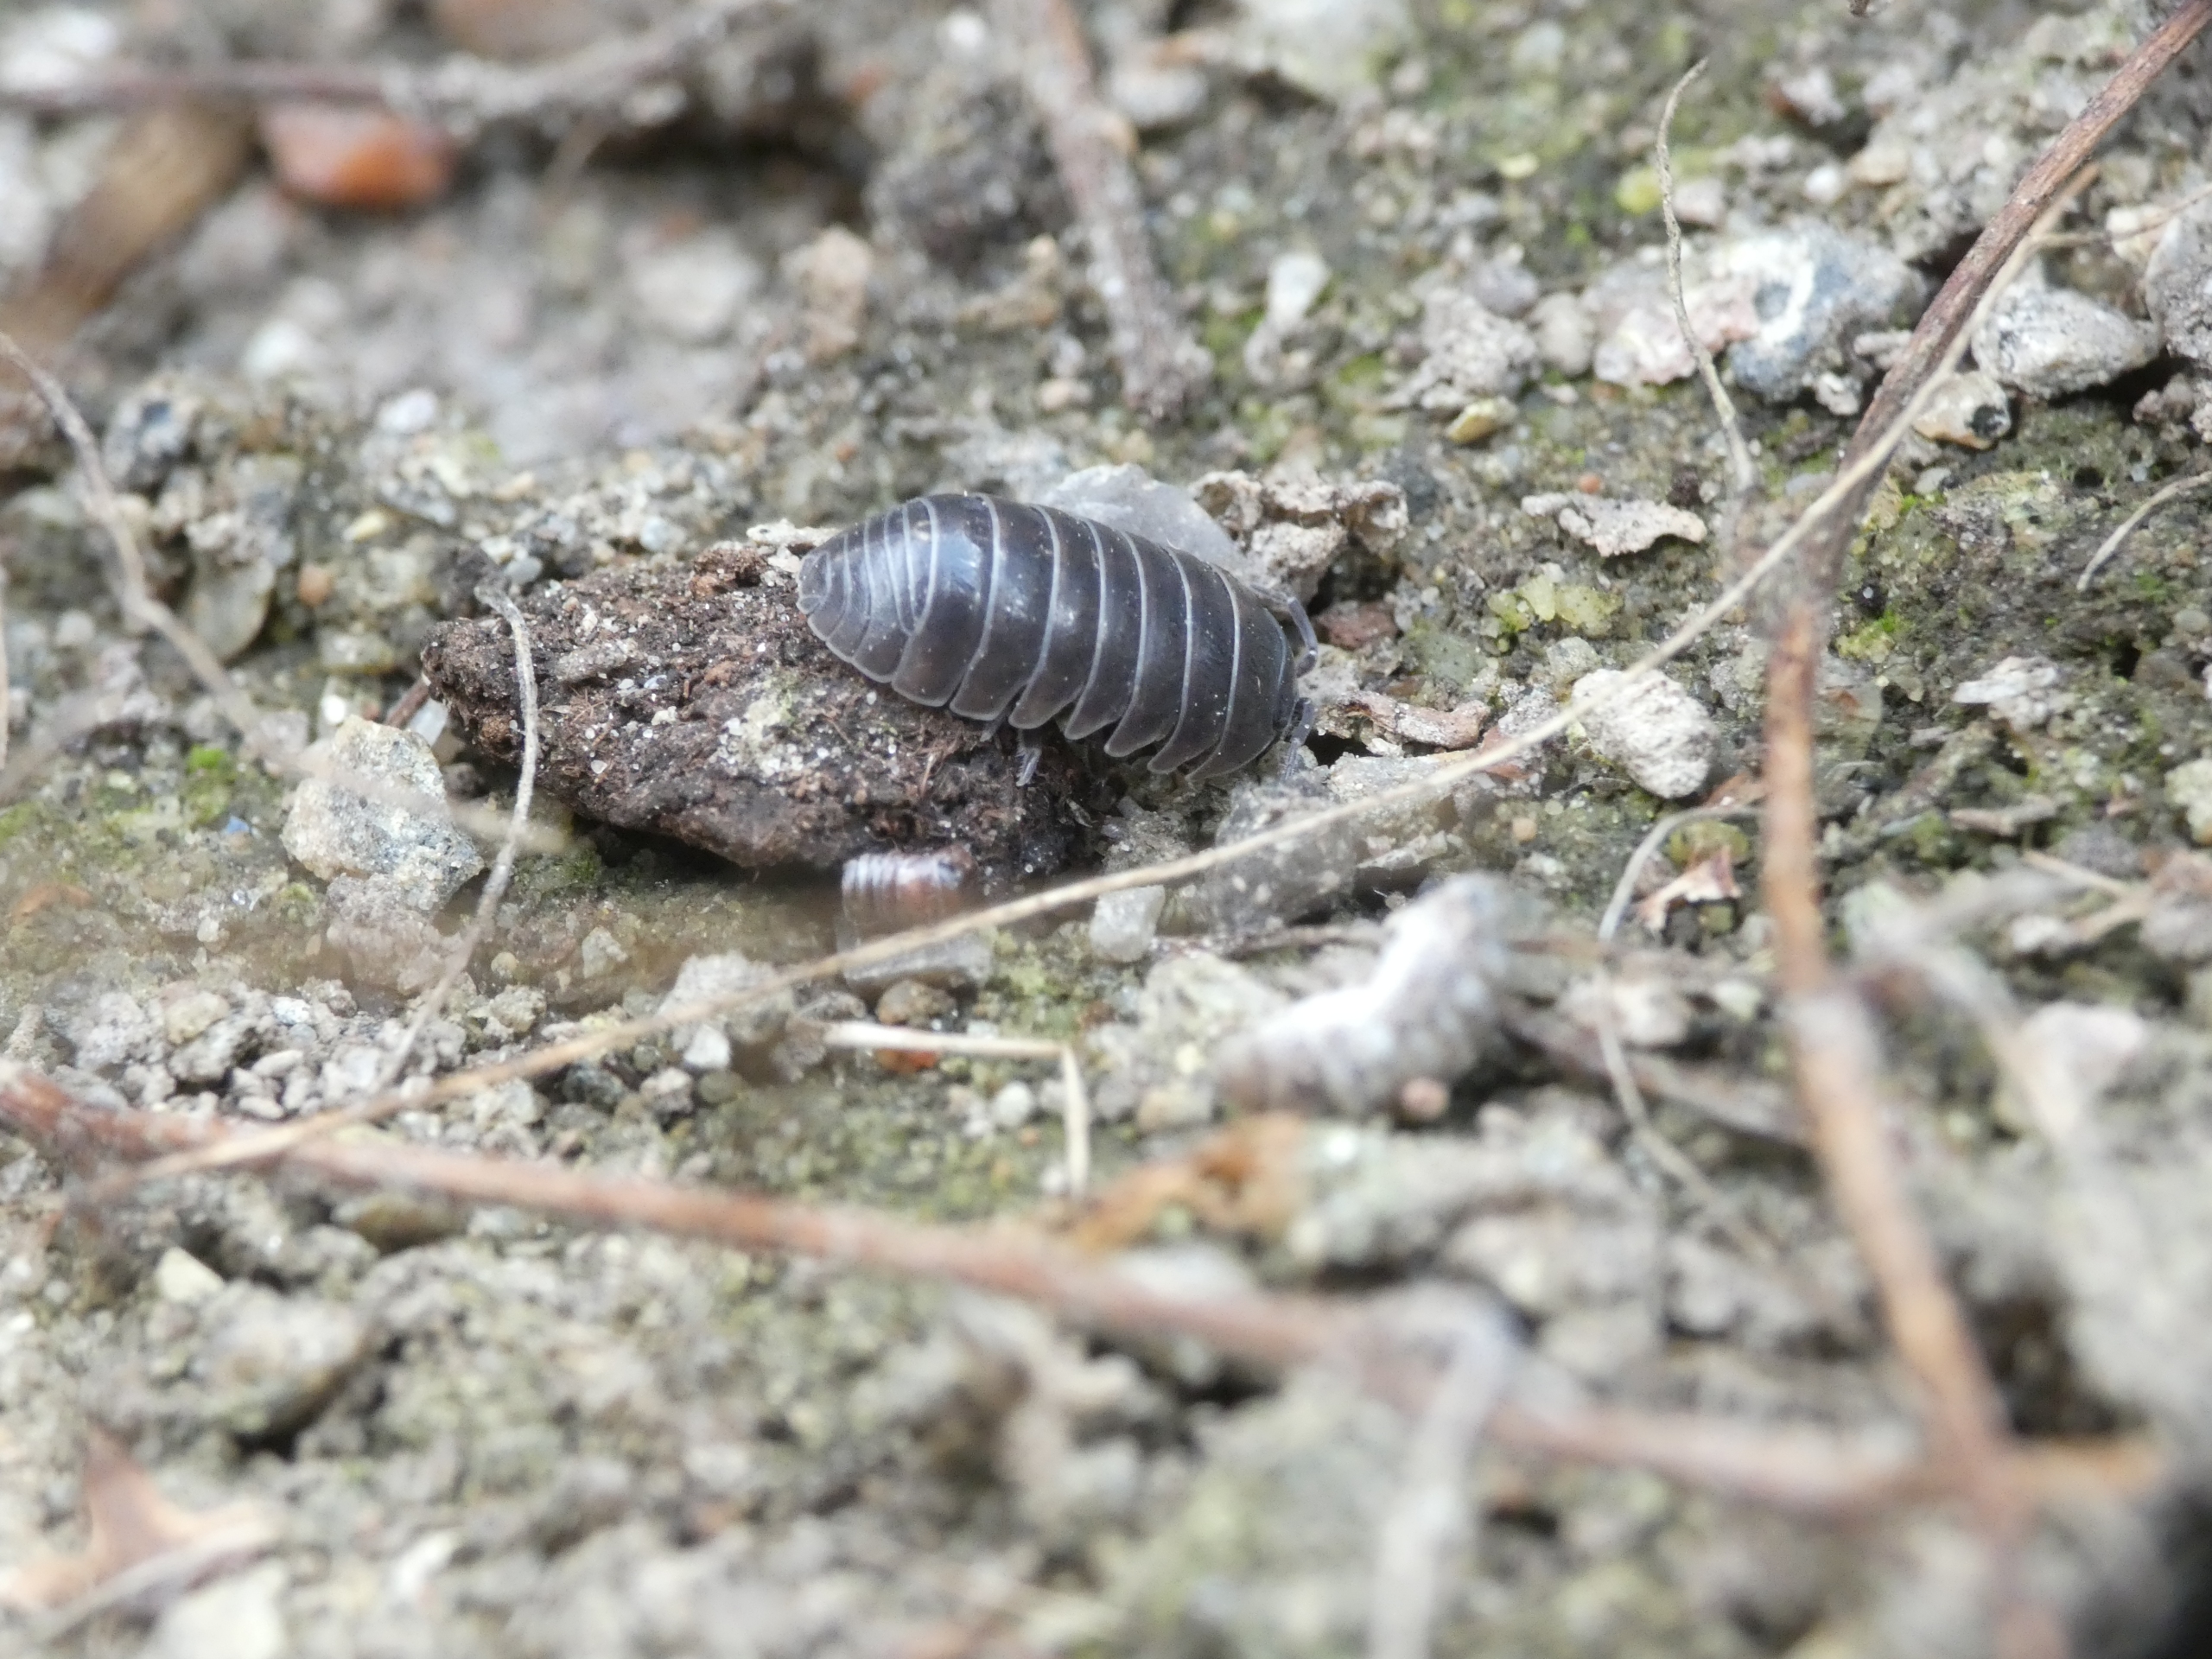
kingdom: Animalia
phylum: Arthropoda
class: Malacostraca
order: Isopoda
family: Armadillidiidae
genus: Armadillidium
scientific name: Armadillidium vulgare
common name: Almindelig kuglebænkebider
